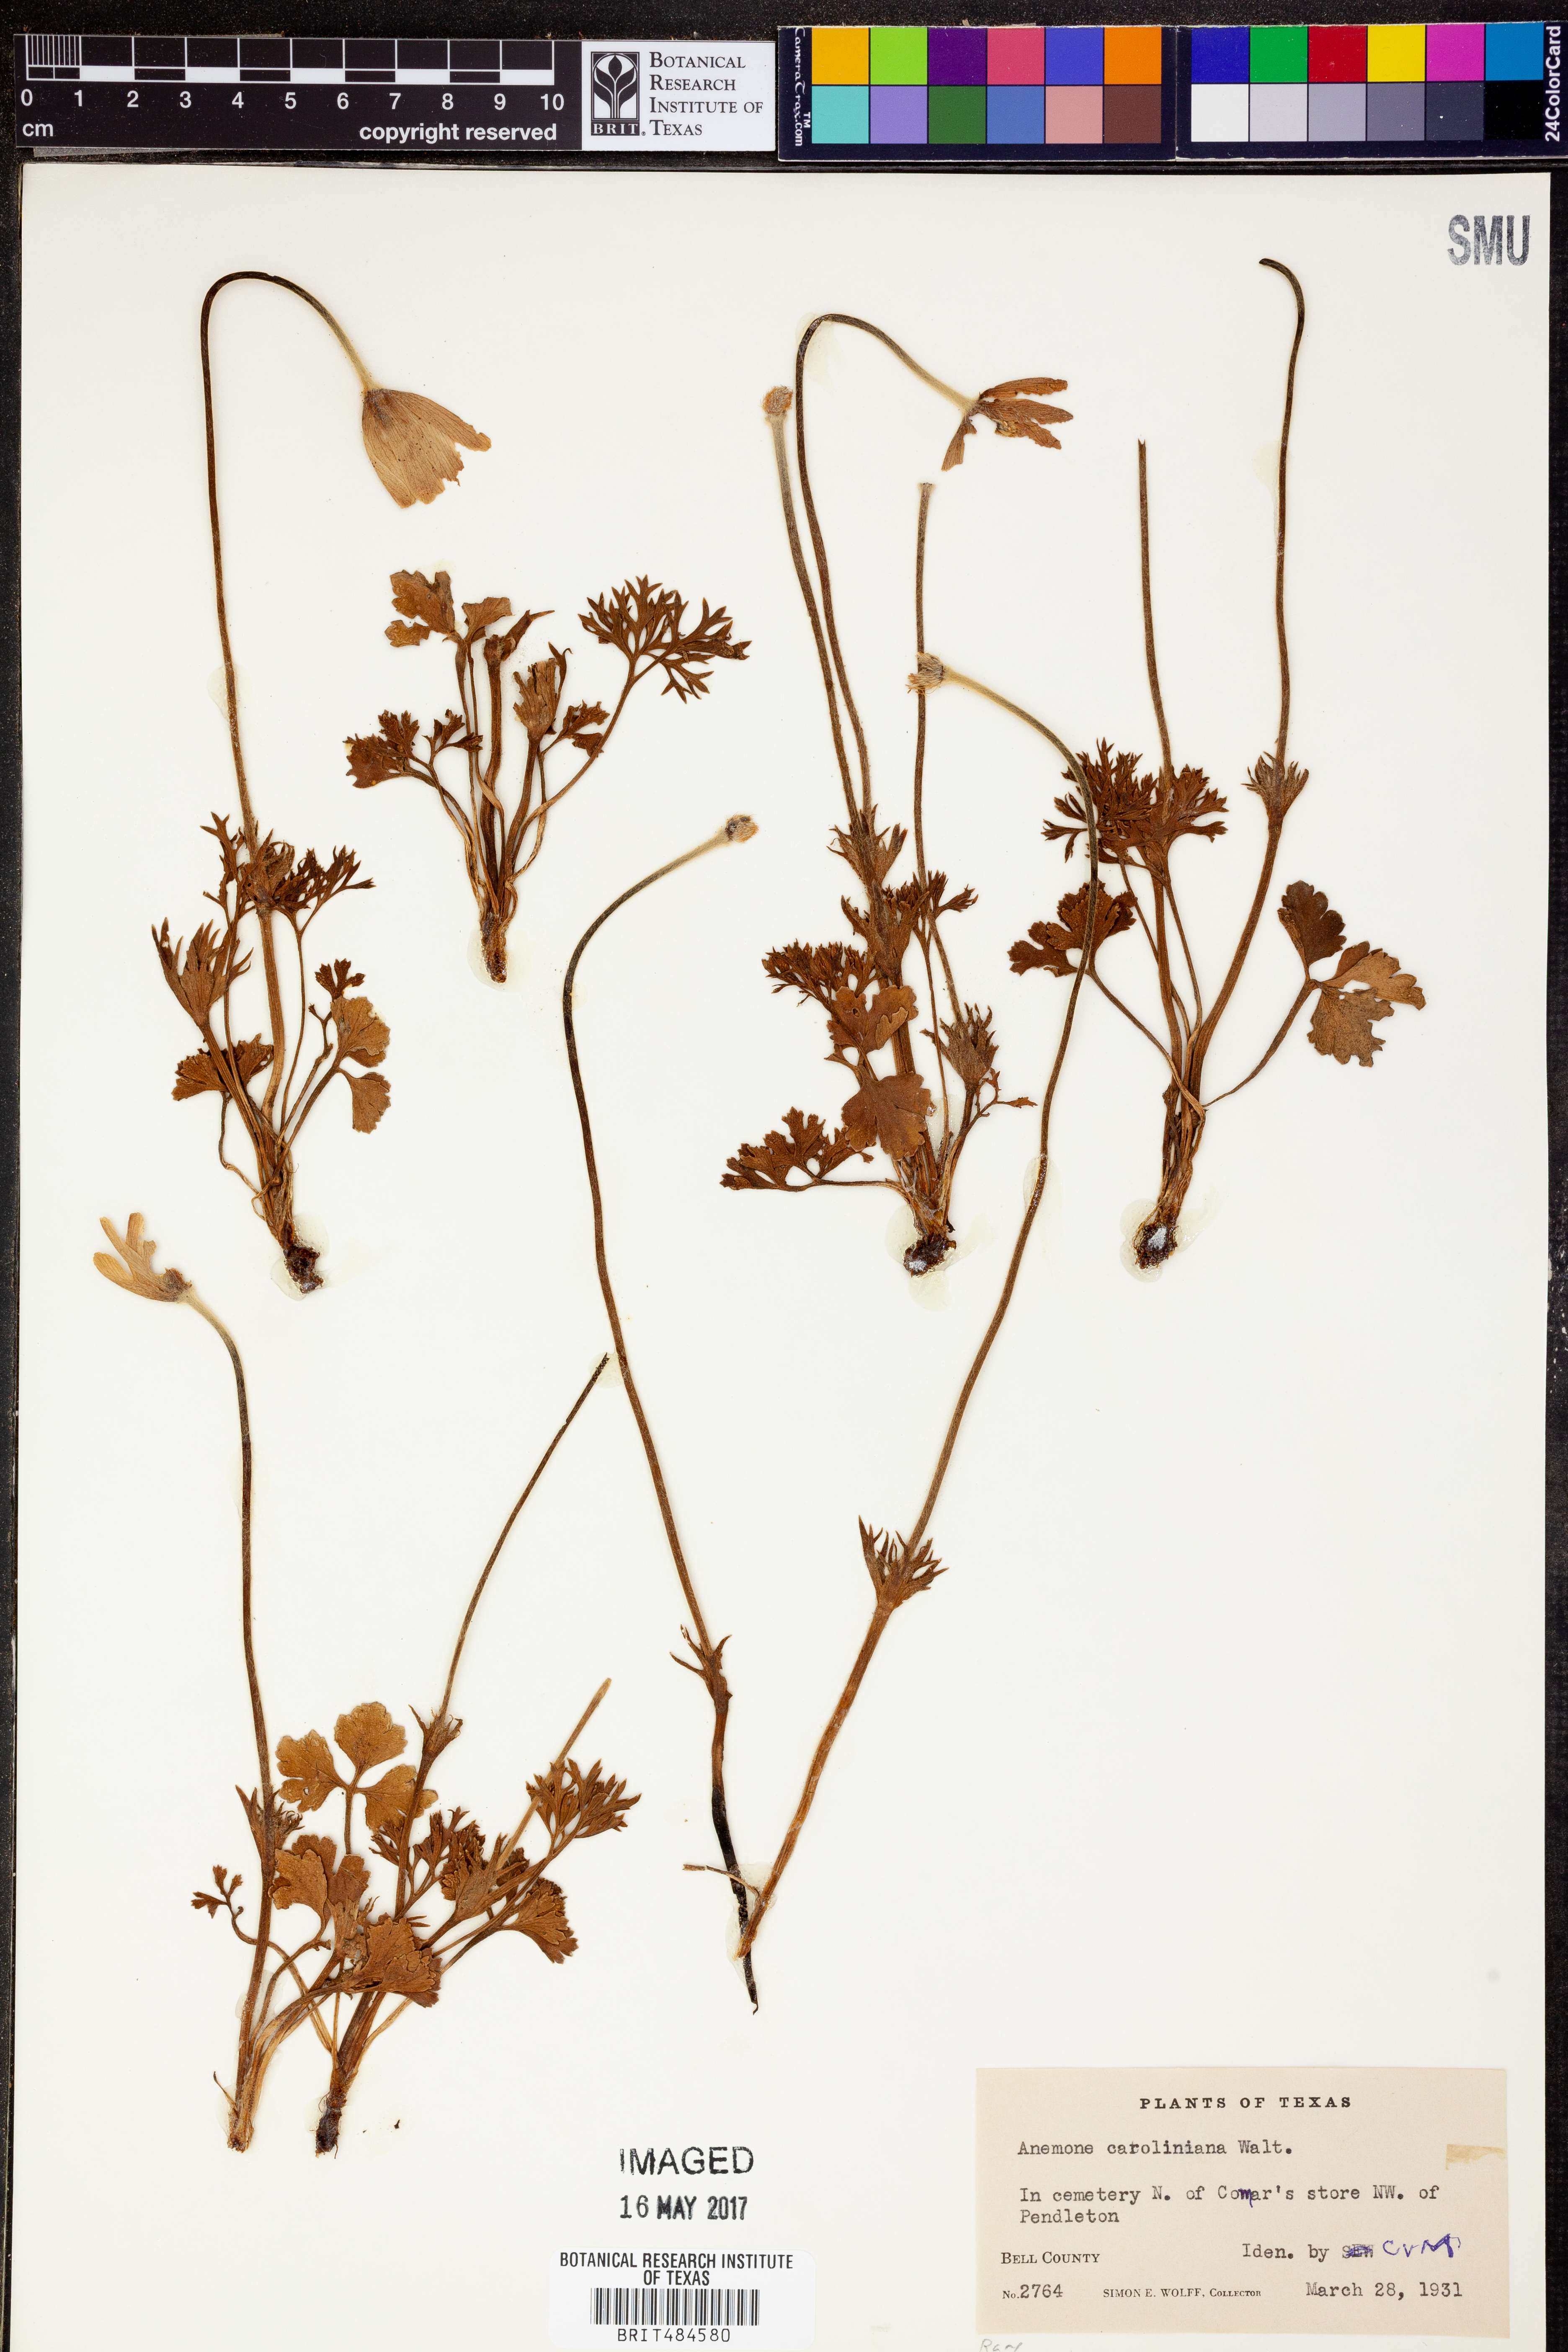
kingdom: Plantae
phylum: Tracheophyta
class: Magnoliopsida
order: Ranunculales
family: Ranunculaceae
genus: Anemone
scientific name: Anemone caroliniana
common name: Carolina anemone
